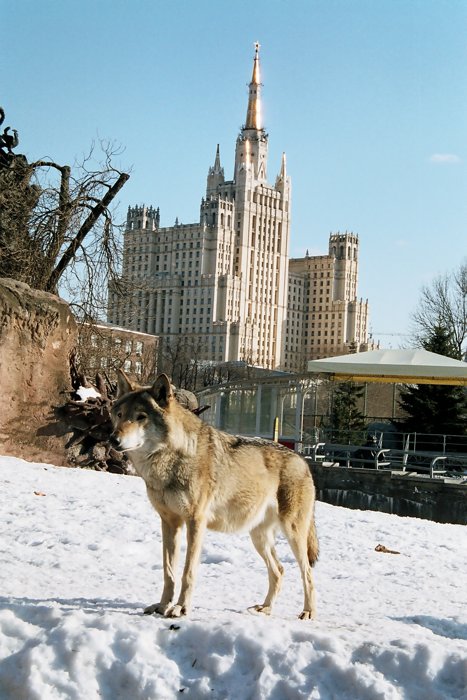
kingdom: Animalia
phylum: Chordata
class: Mammalia
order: Carnivora
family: Canidae
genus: Canis
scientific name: Canis lupus
